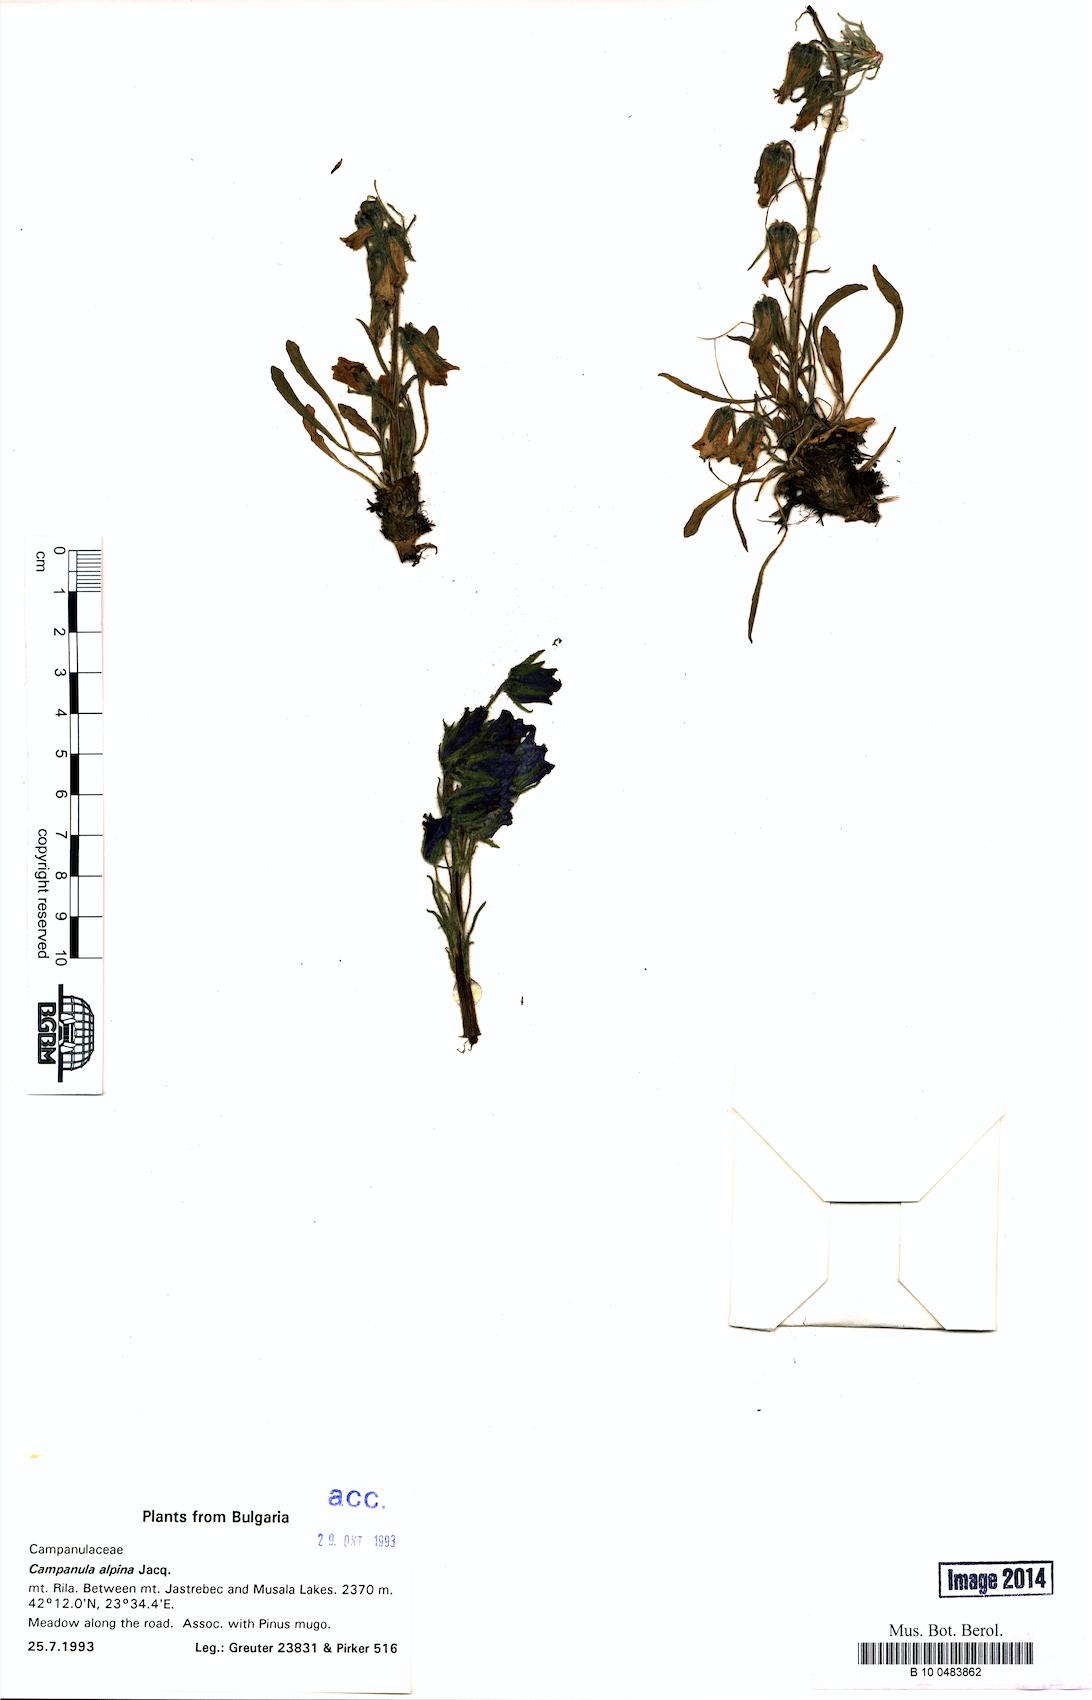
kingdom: Plantae
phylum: Tracheophyta
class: Magnoliopsida
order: Asterales
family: Campanulaceae
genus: Campanula
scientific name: Campanula alpina
